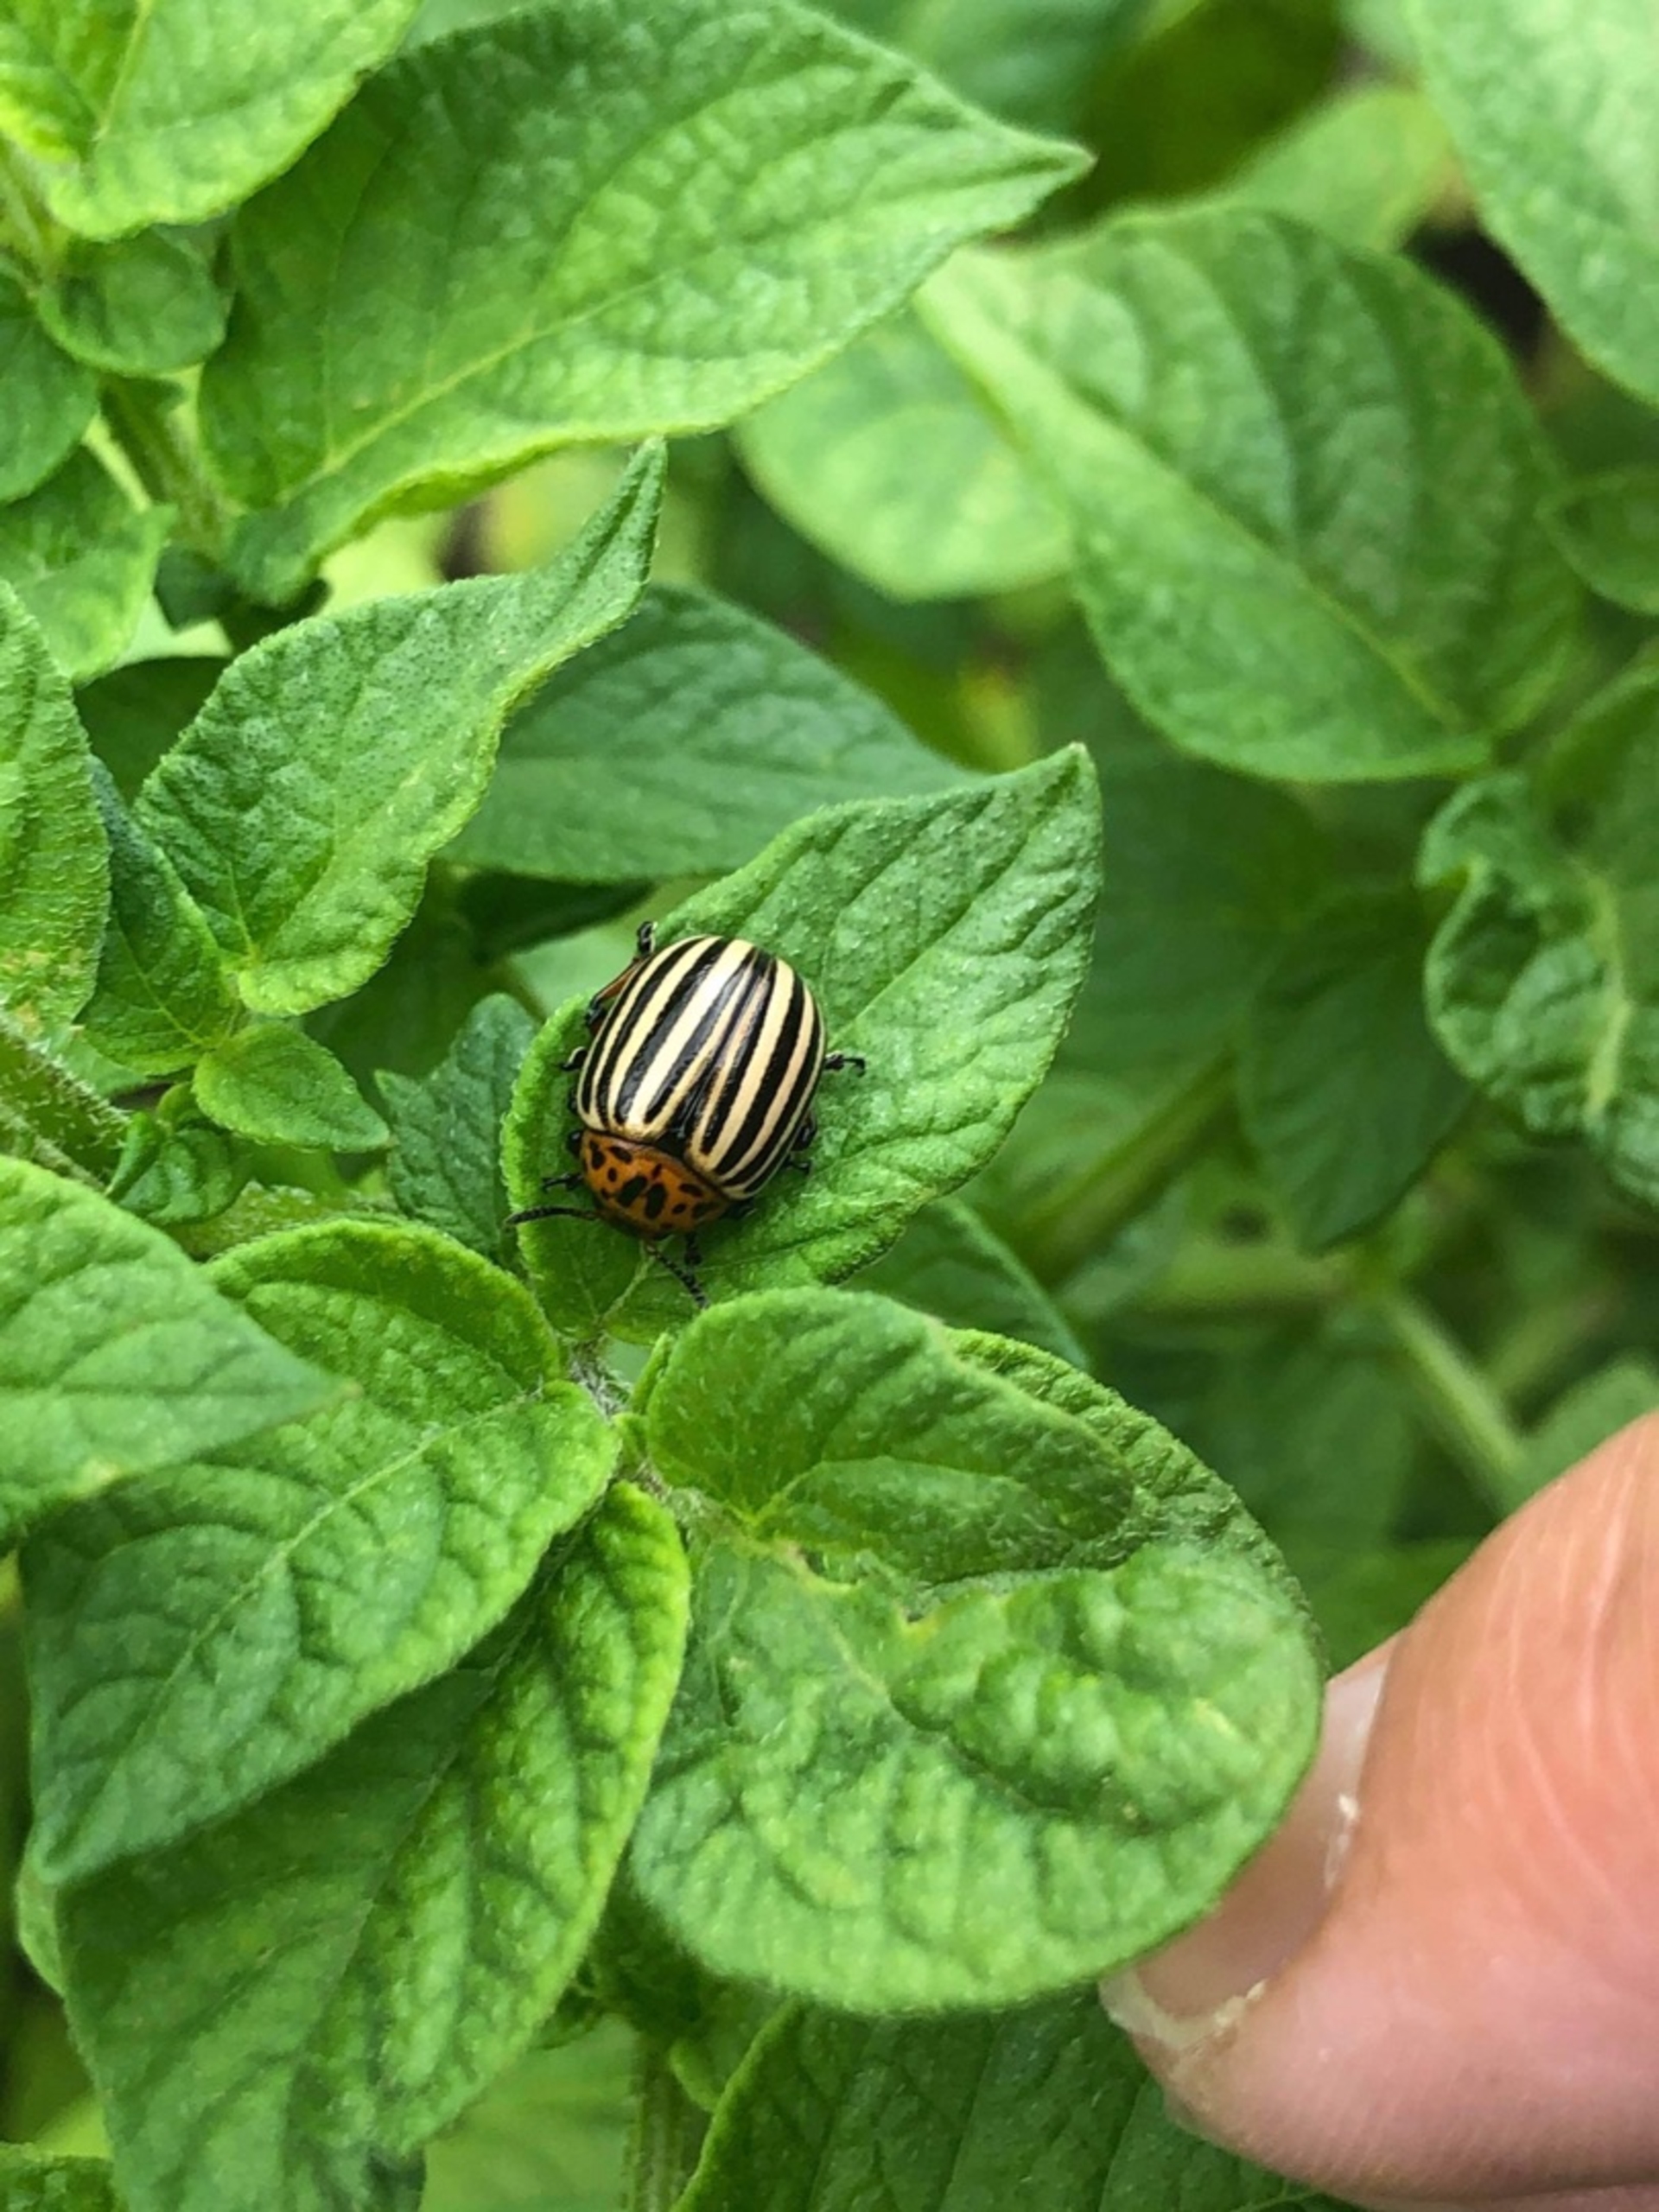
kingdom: Animalia
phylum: Arthropoda
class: Insecta
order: Coleoptera
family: Chrysomelidae
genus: Leptinotarsa
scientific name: Leptinotarsa decemlineata
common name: Coloradobille
